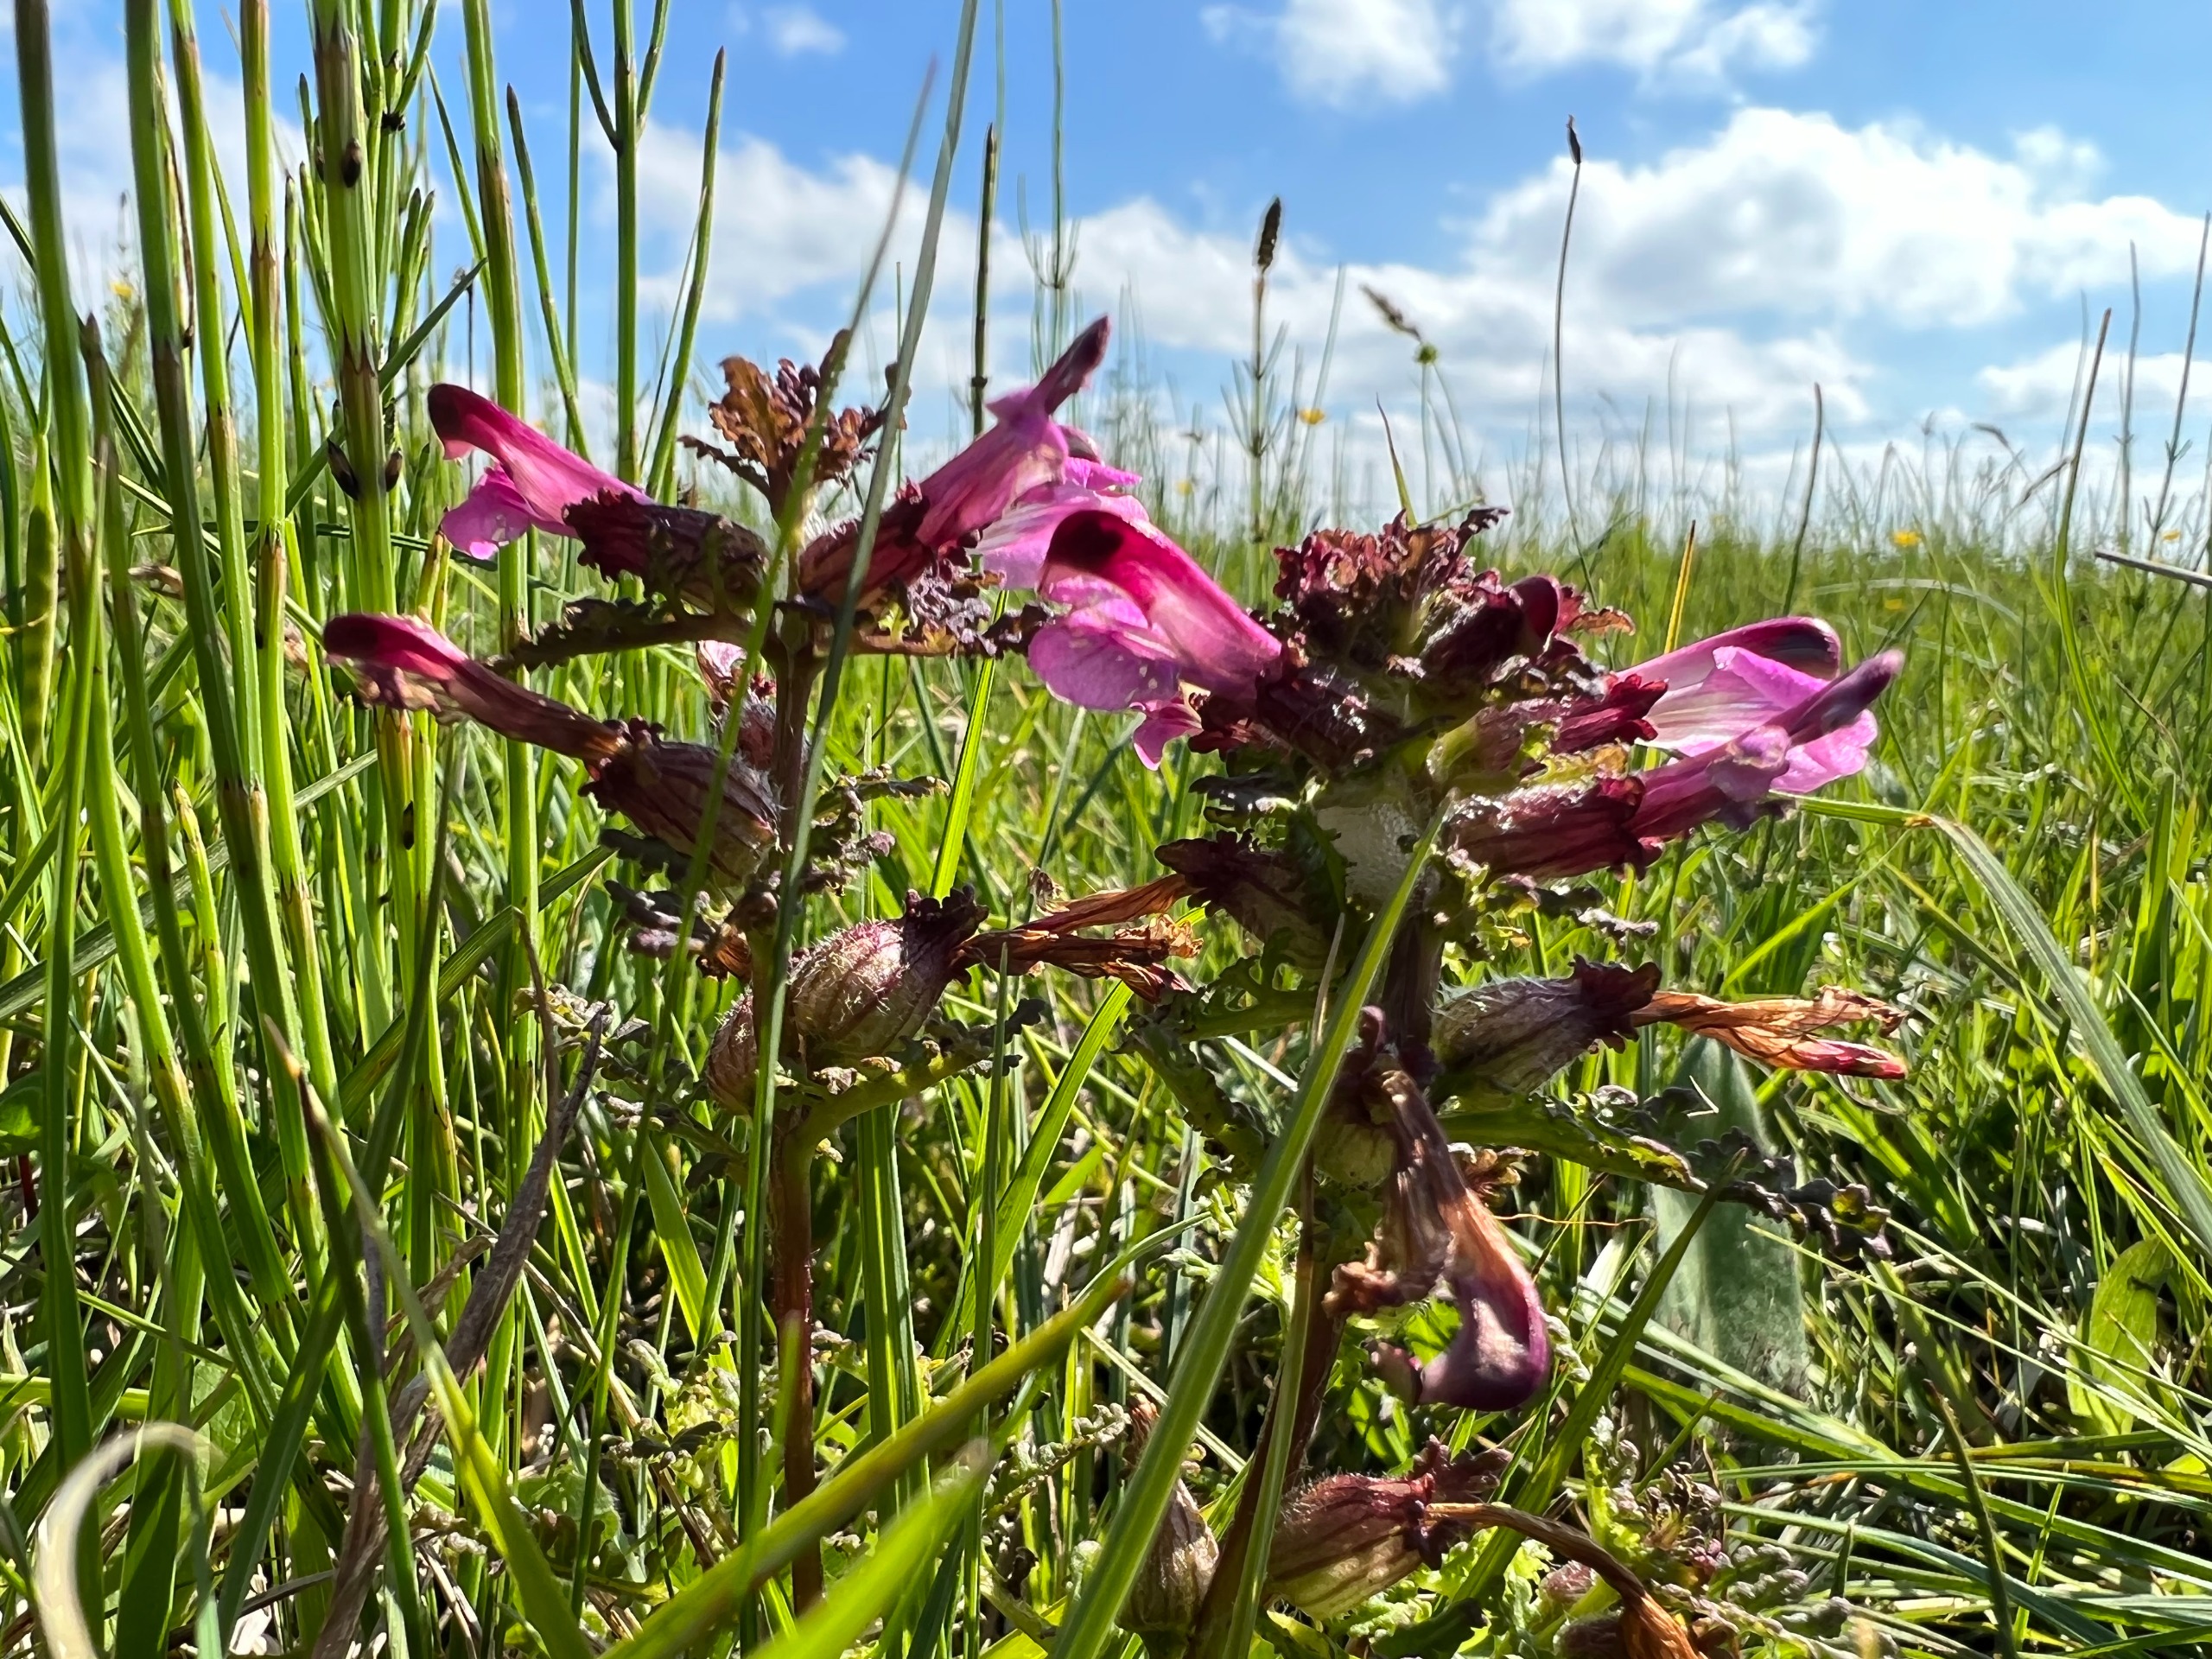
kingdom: Plantae
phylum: Tracheophyta
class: Magnoliopsida
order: Lamiales
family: Orobanchaceae
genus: Pedicularis
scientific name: Pedicularis palustris
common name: Eng-troldurt
